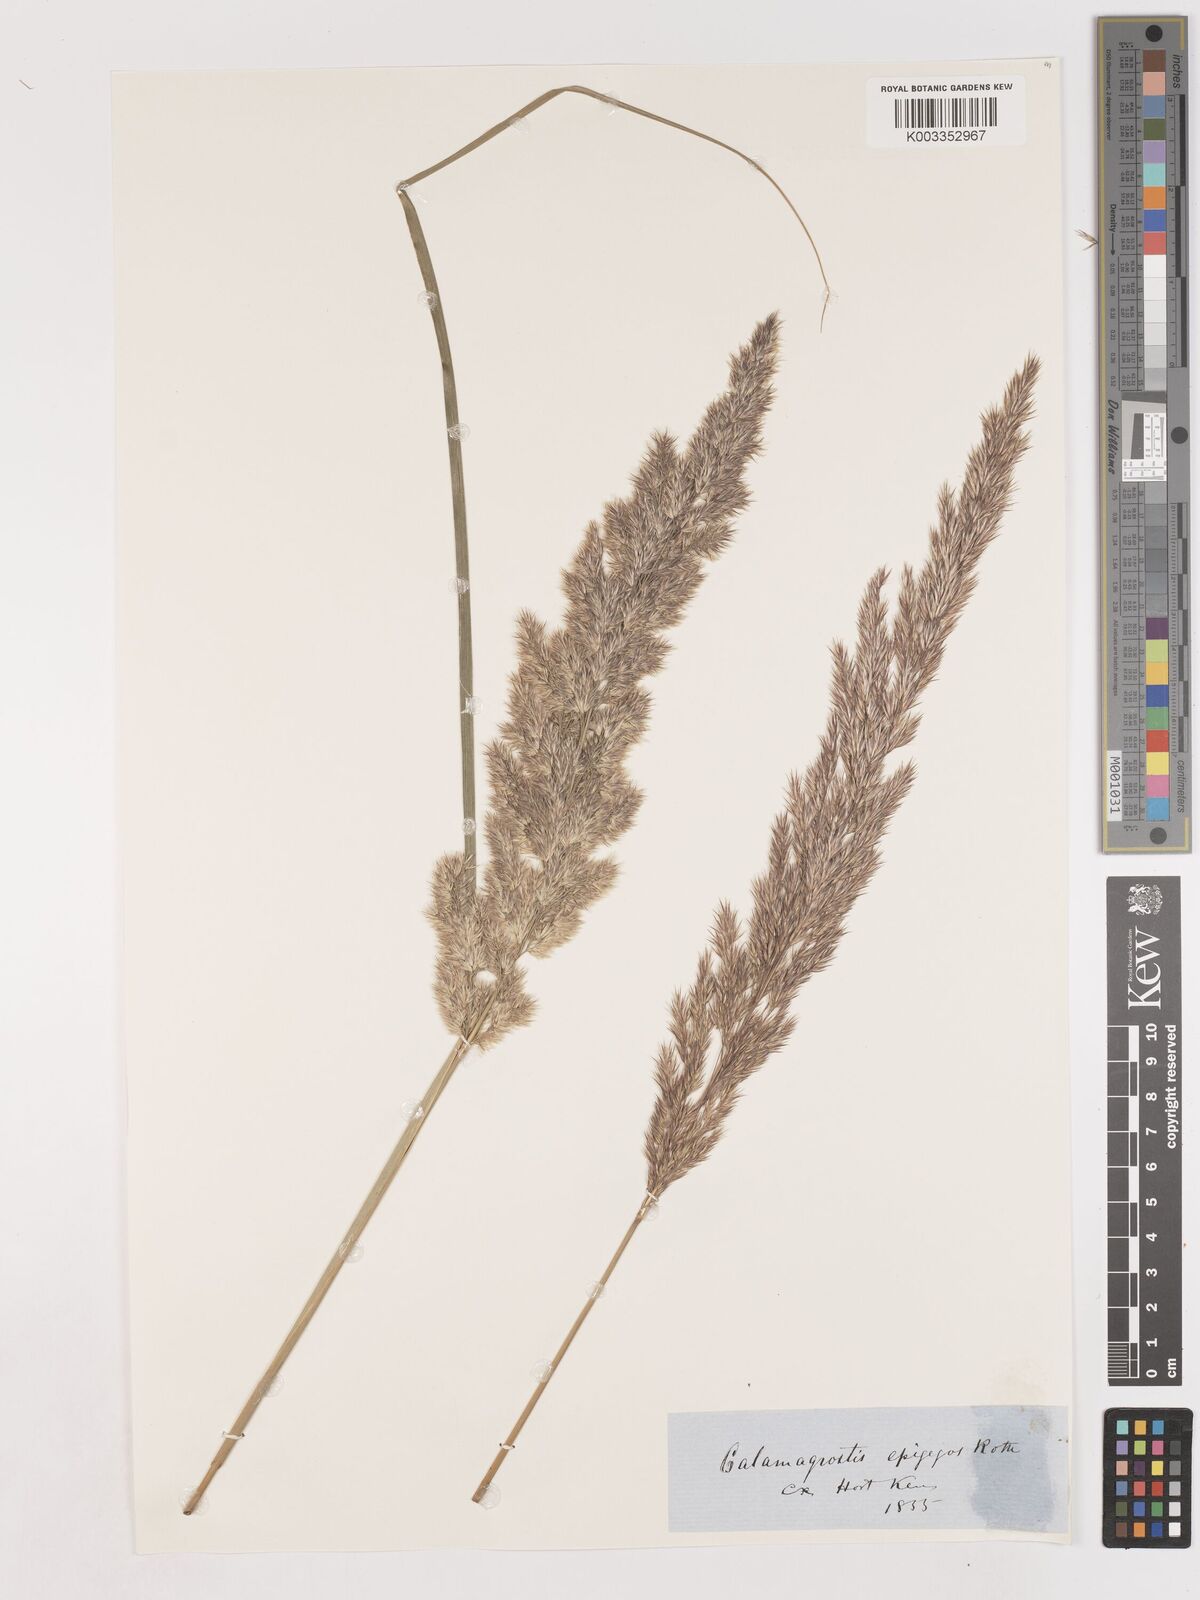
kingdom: Plantae
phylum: Tracheophyta
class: Liliopsida
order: Poales
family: Poaceae
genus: Calamagrostis
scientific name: Calamagrostis epigejos
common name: Wood small-reed
